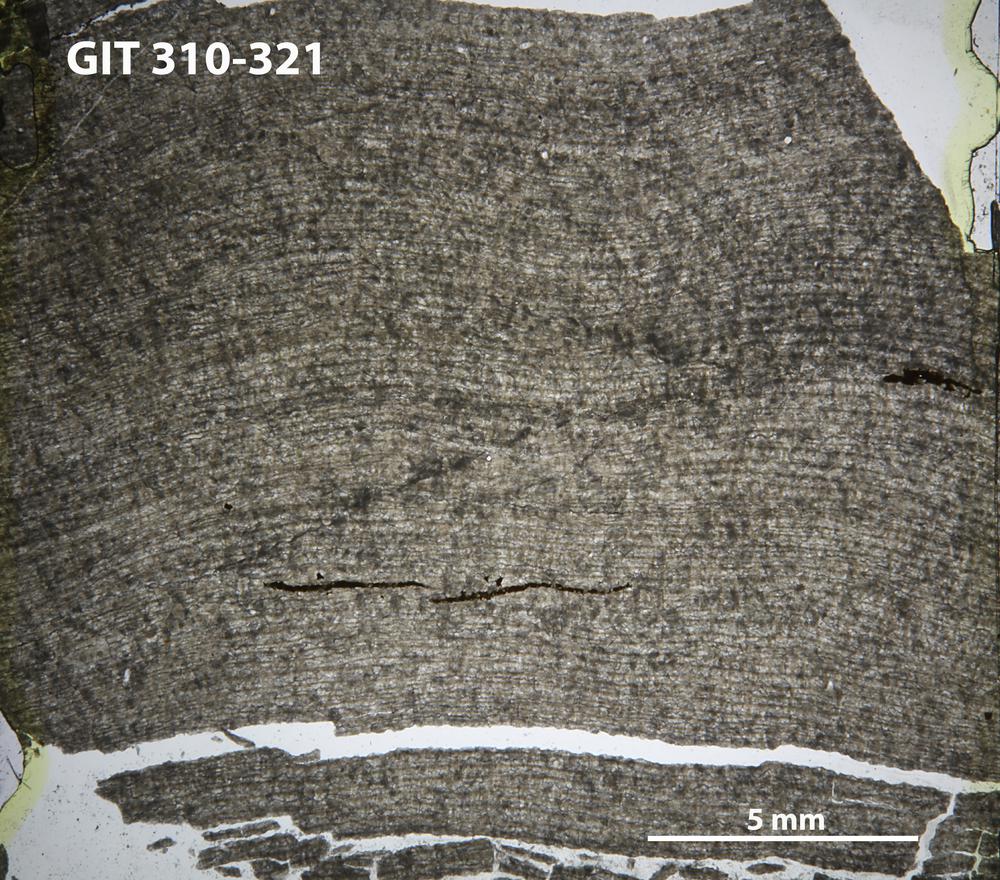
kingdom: Animalia
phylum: Porifera
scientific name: Porifera
